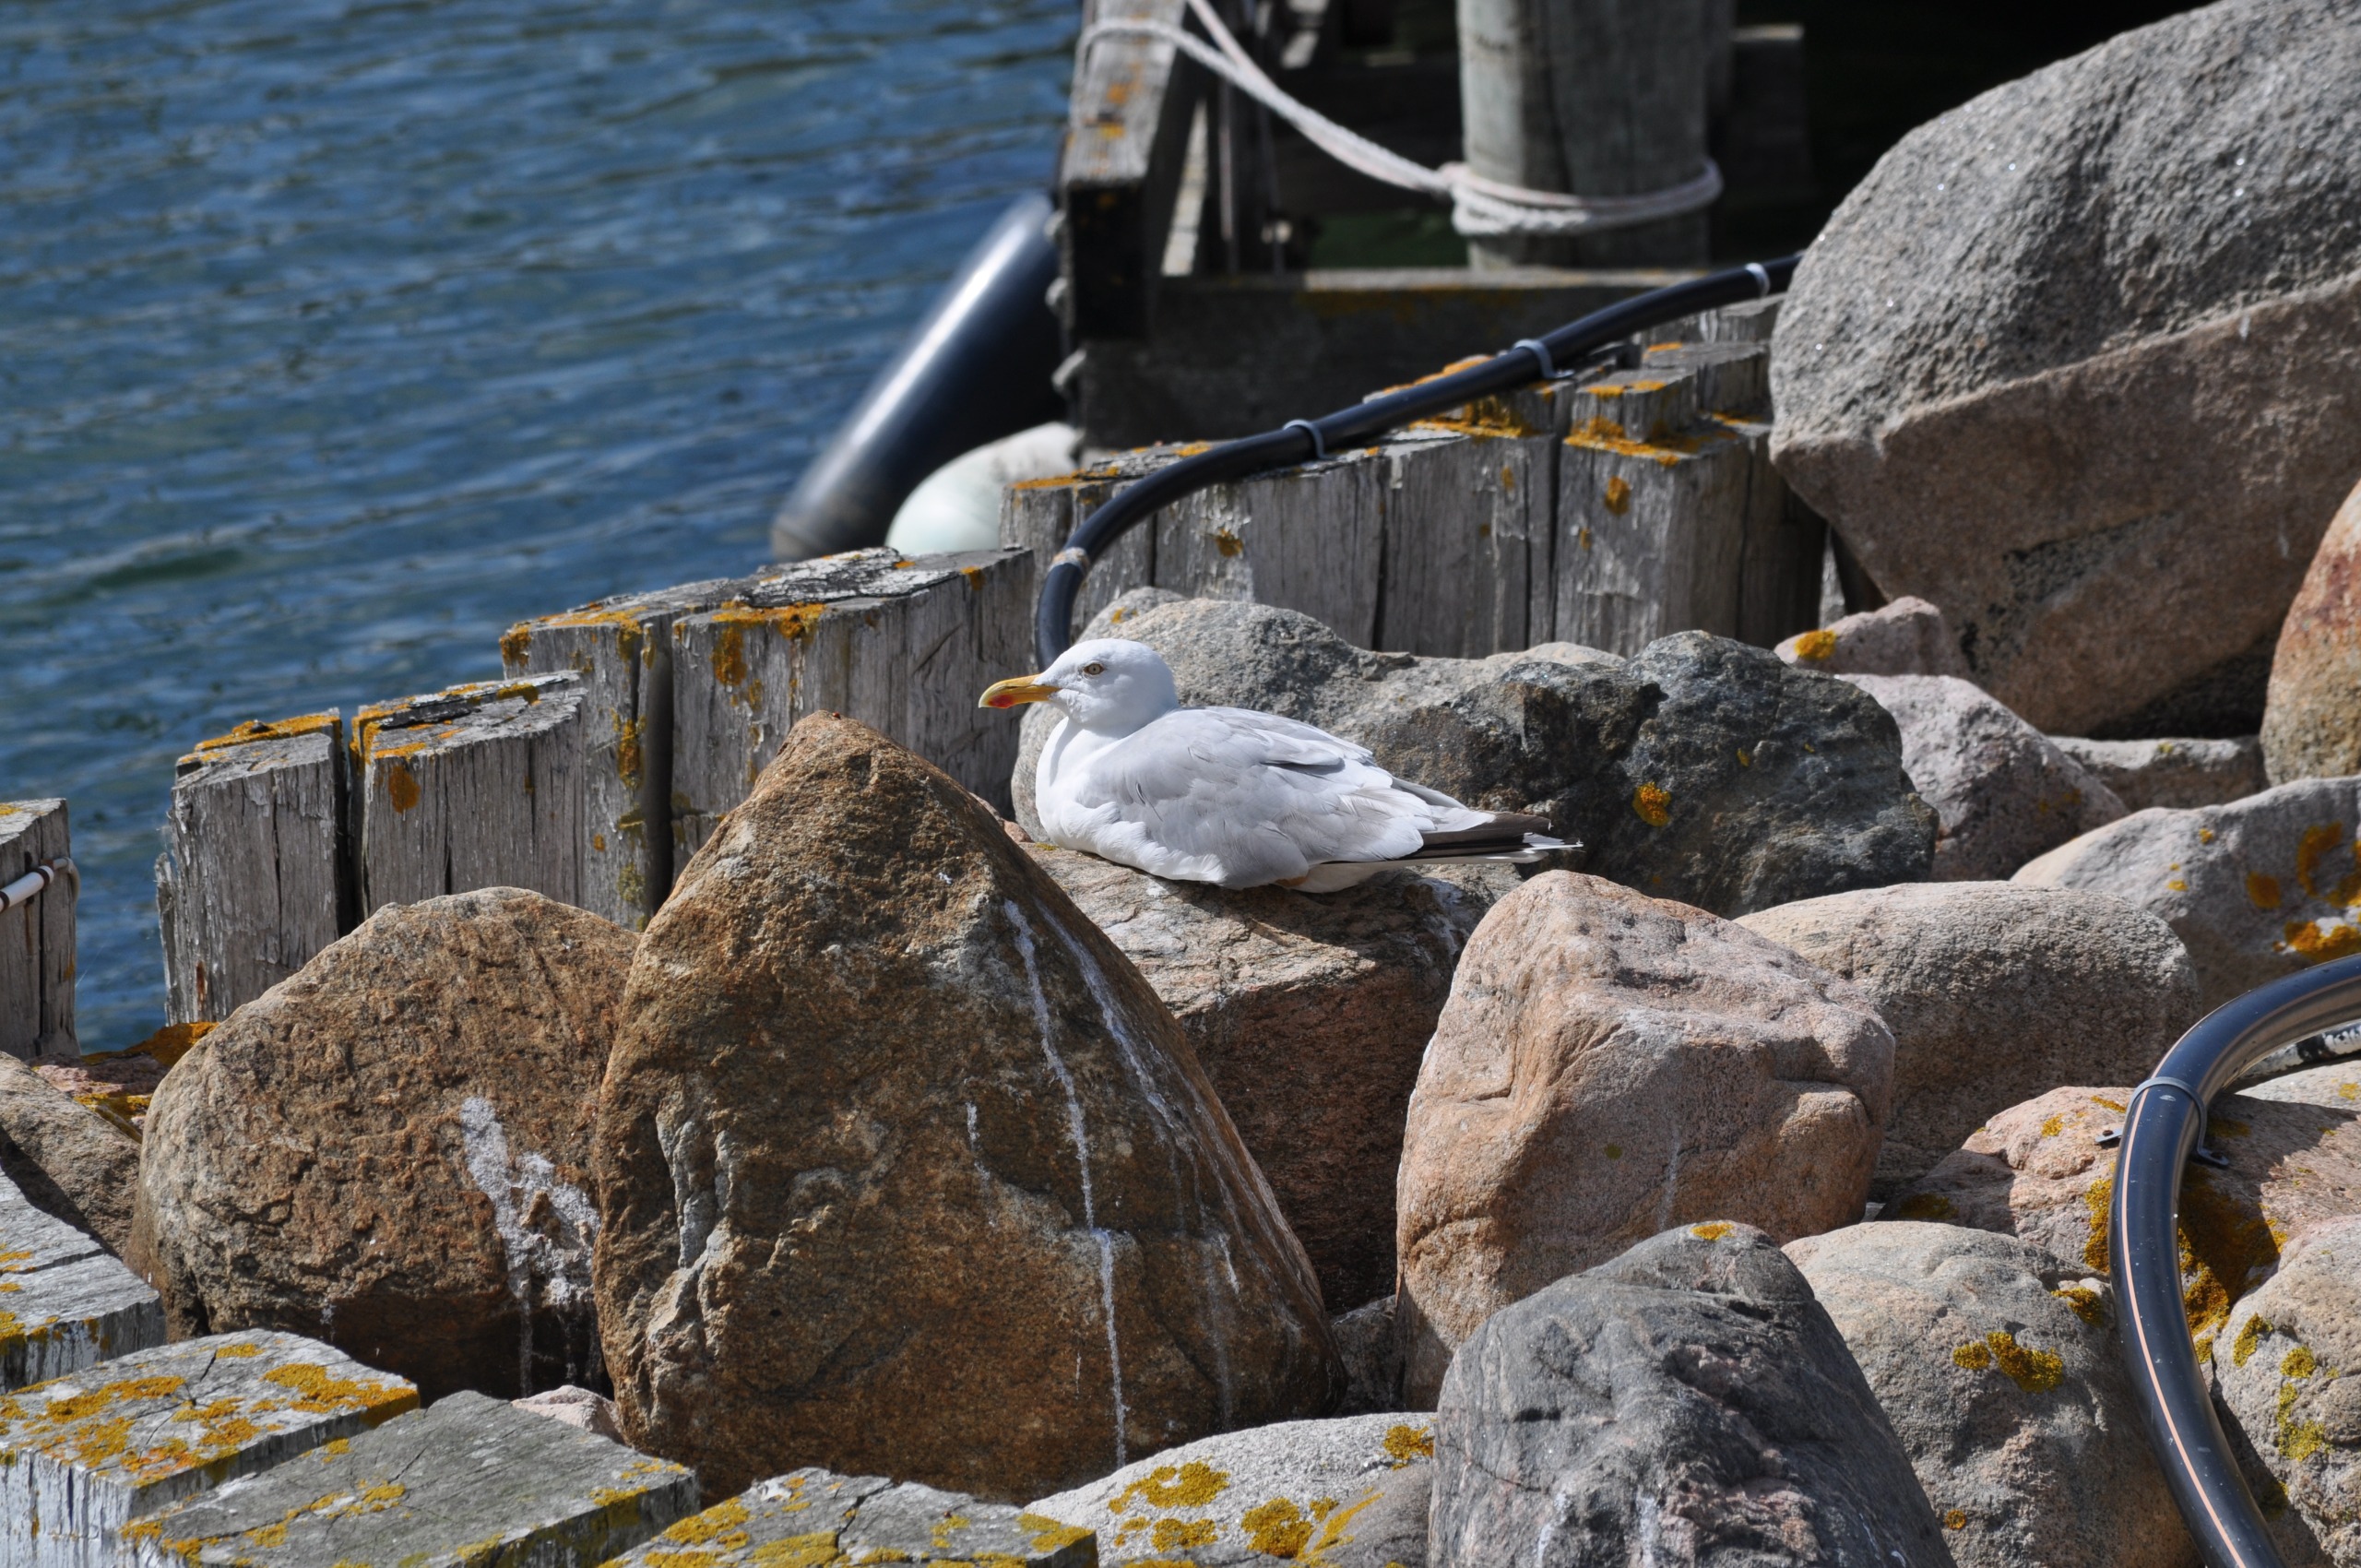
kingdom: Animalia
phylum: Chordata
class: Aves
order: Charadriiformes
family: Laridae
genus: Larus
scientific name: Larus argentatus
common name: Sølvmåge
